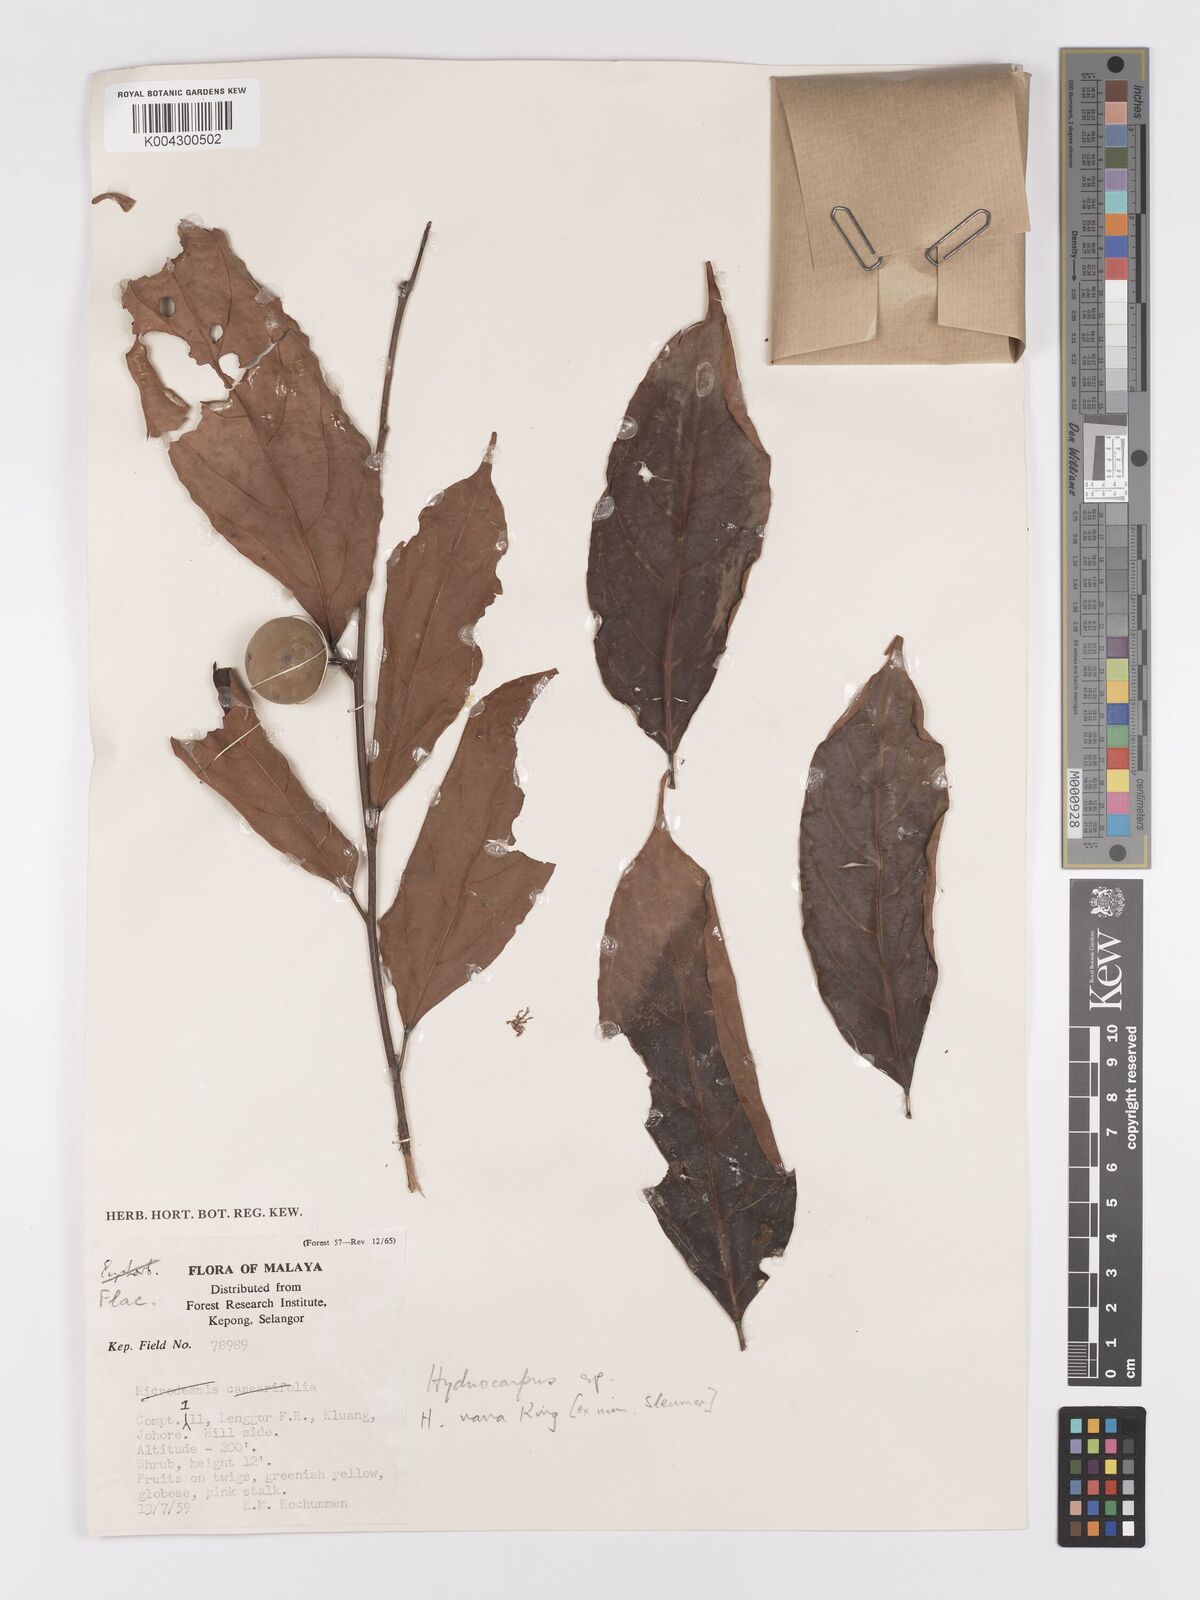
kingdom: Plantae
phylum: Tracheophyta
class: Magnoliopsida
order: Malpighiales
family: Achariaceae
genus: Hydnocarpus
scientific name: Hydnocarpus nanus
